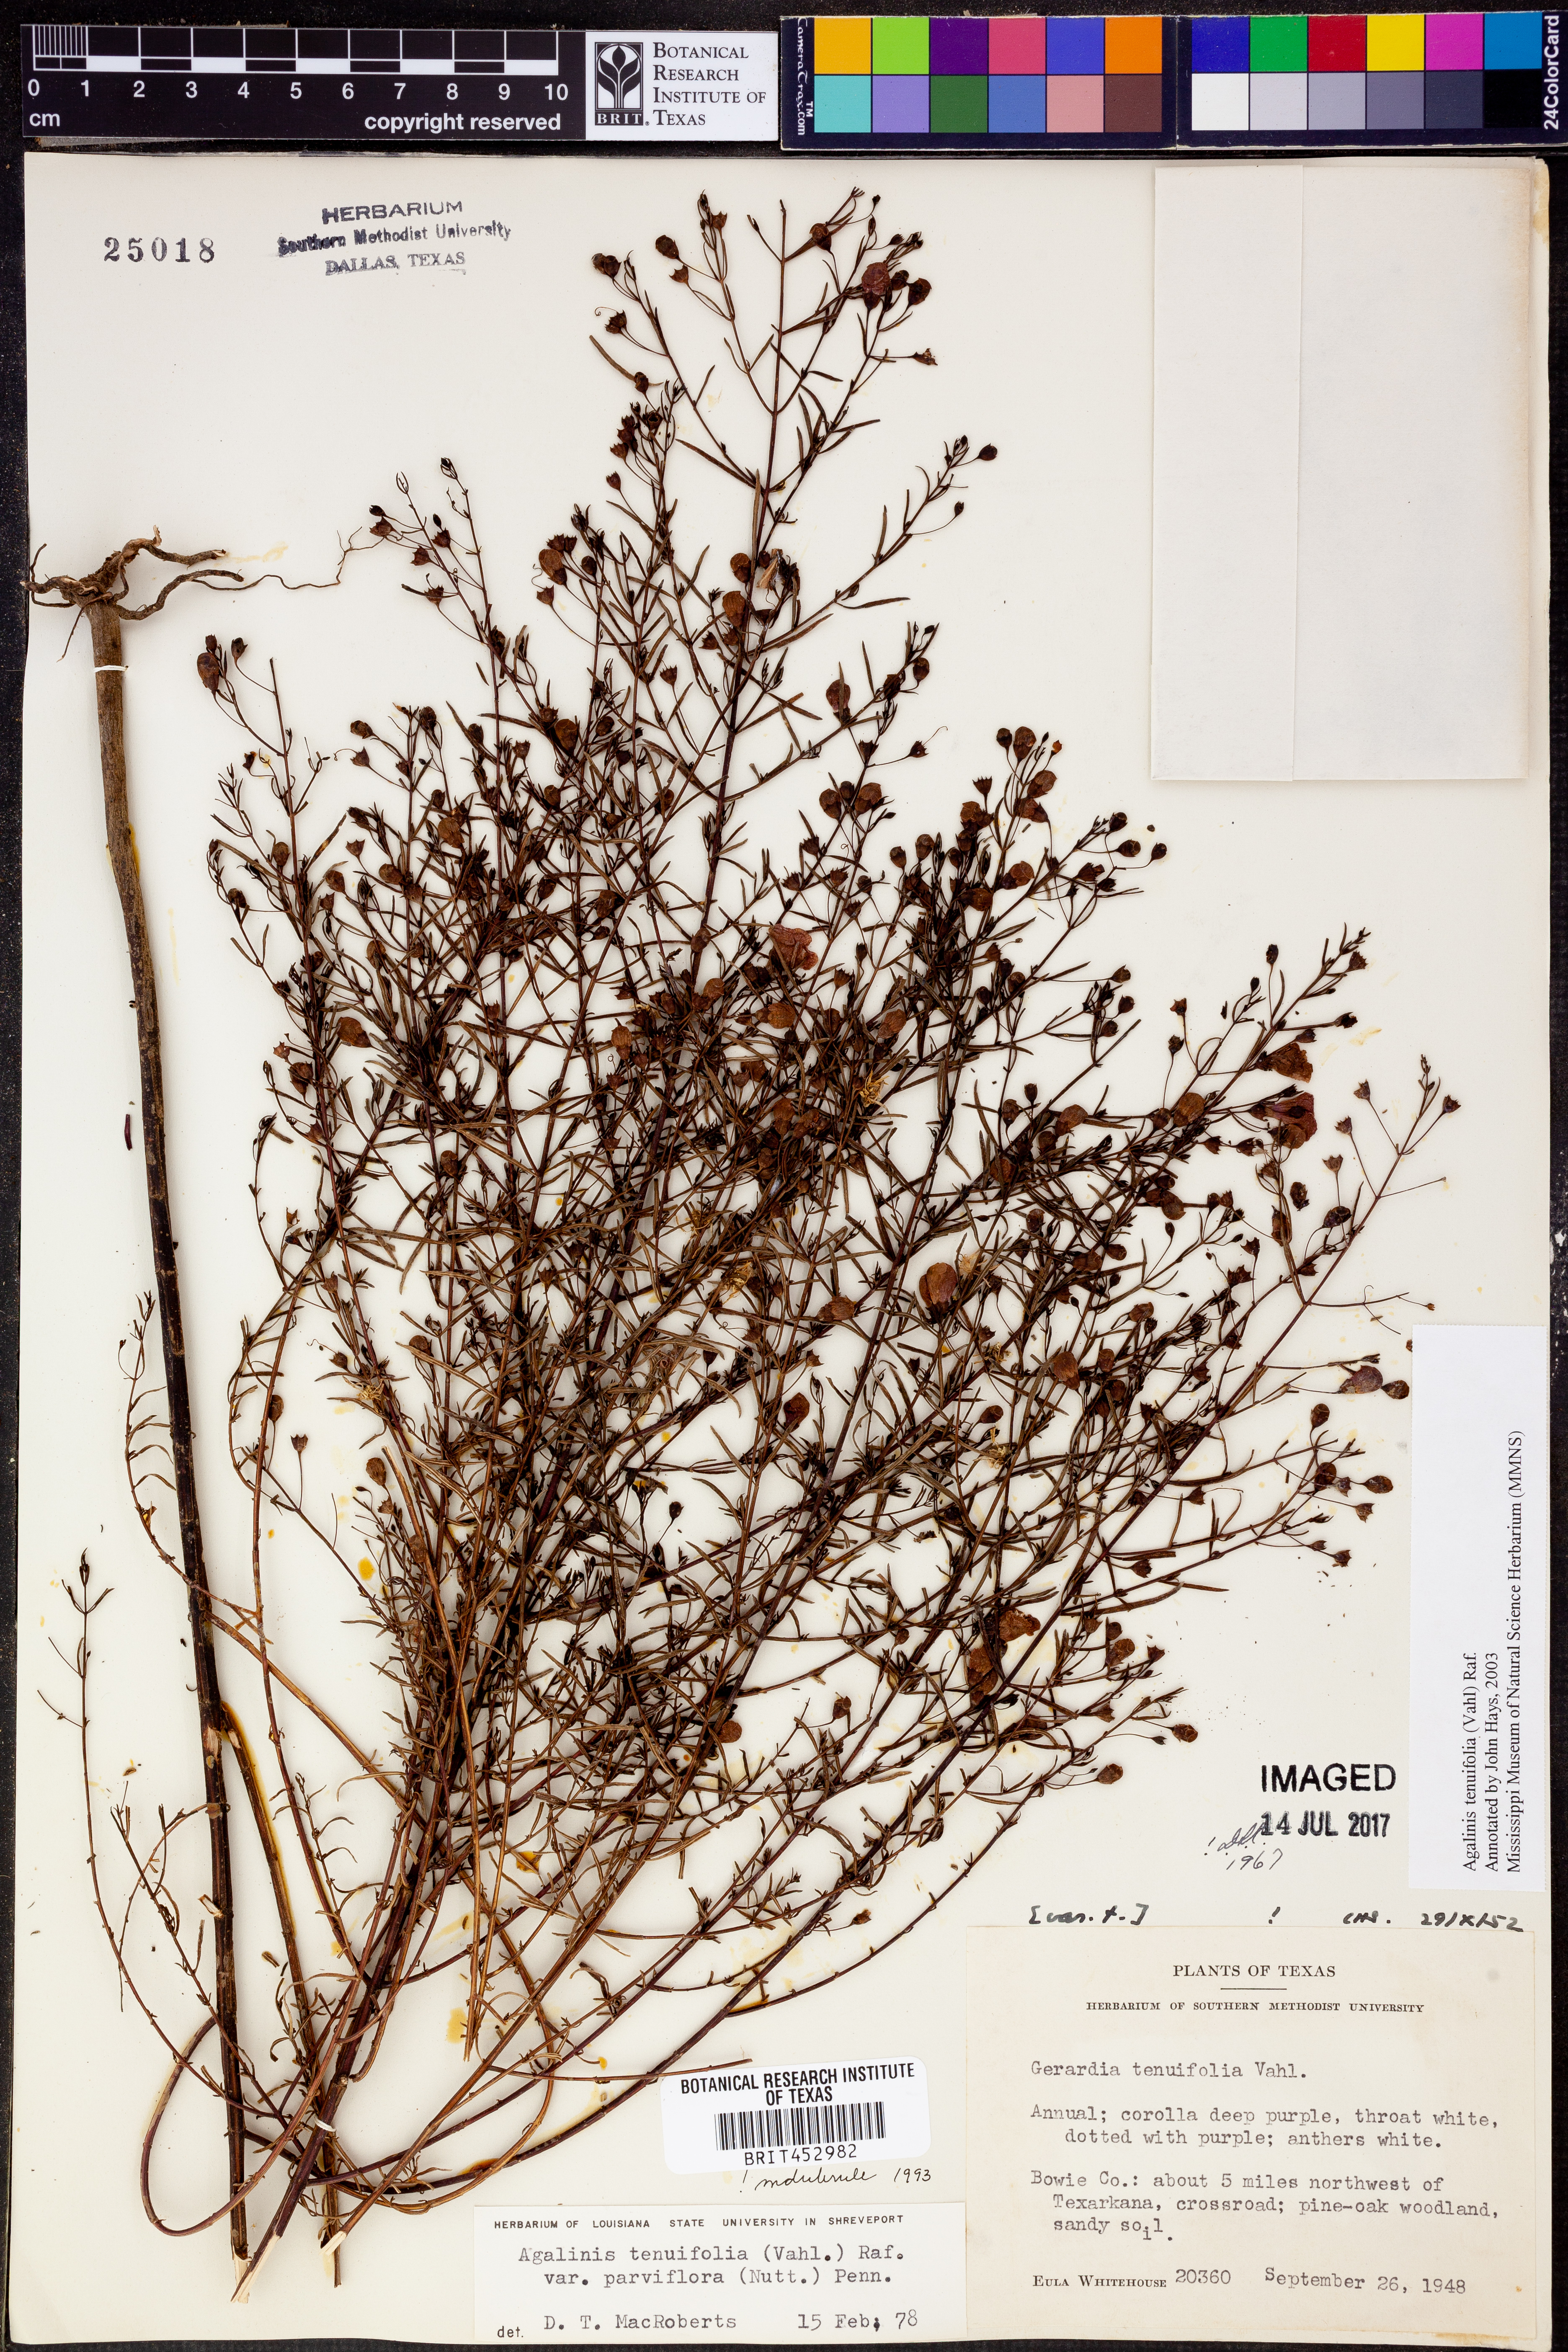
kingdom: Plantae
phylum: Tracheophyta
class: Magnoliopsida
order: Lamiales
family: Orobanchaceae
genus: Agalinis
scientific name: Agalinis tenuifolia
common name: Slender agalinis
